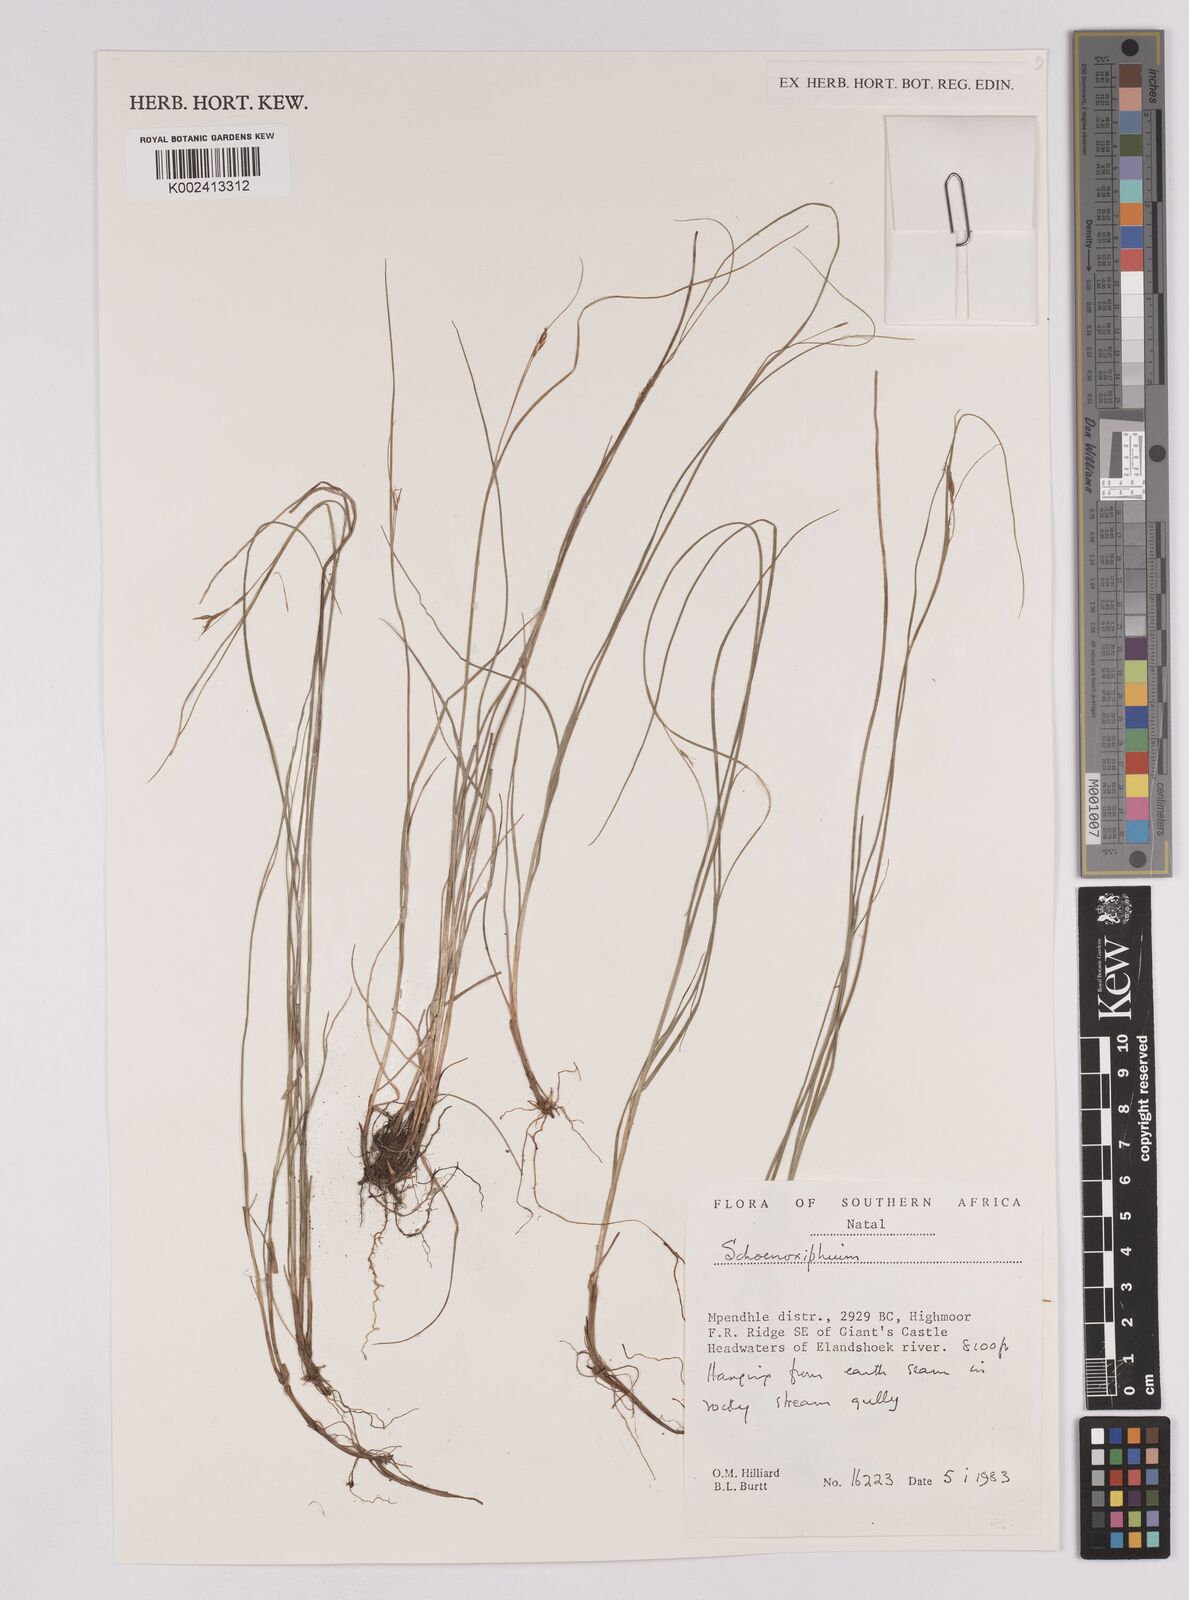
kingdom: Plantae
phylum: Tracheophyta
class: Liliopsida
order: Poales
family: Cyperaceae
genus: Carex
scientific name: Carex
